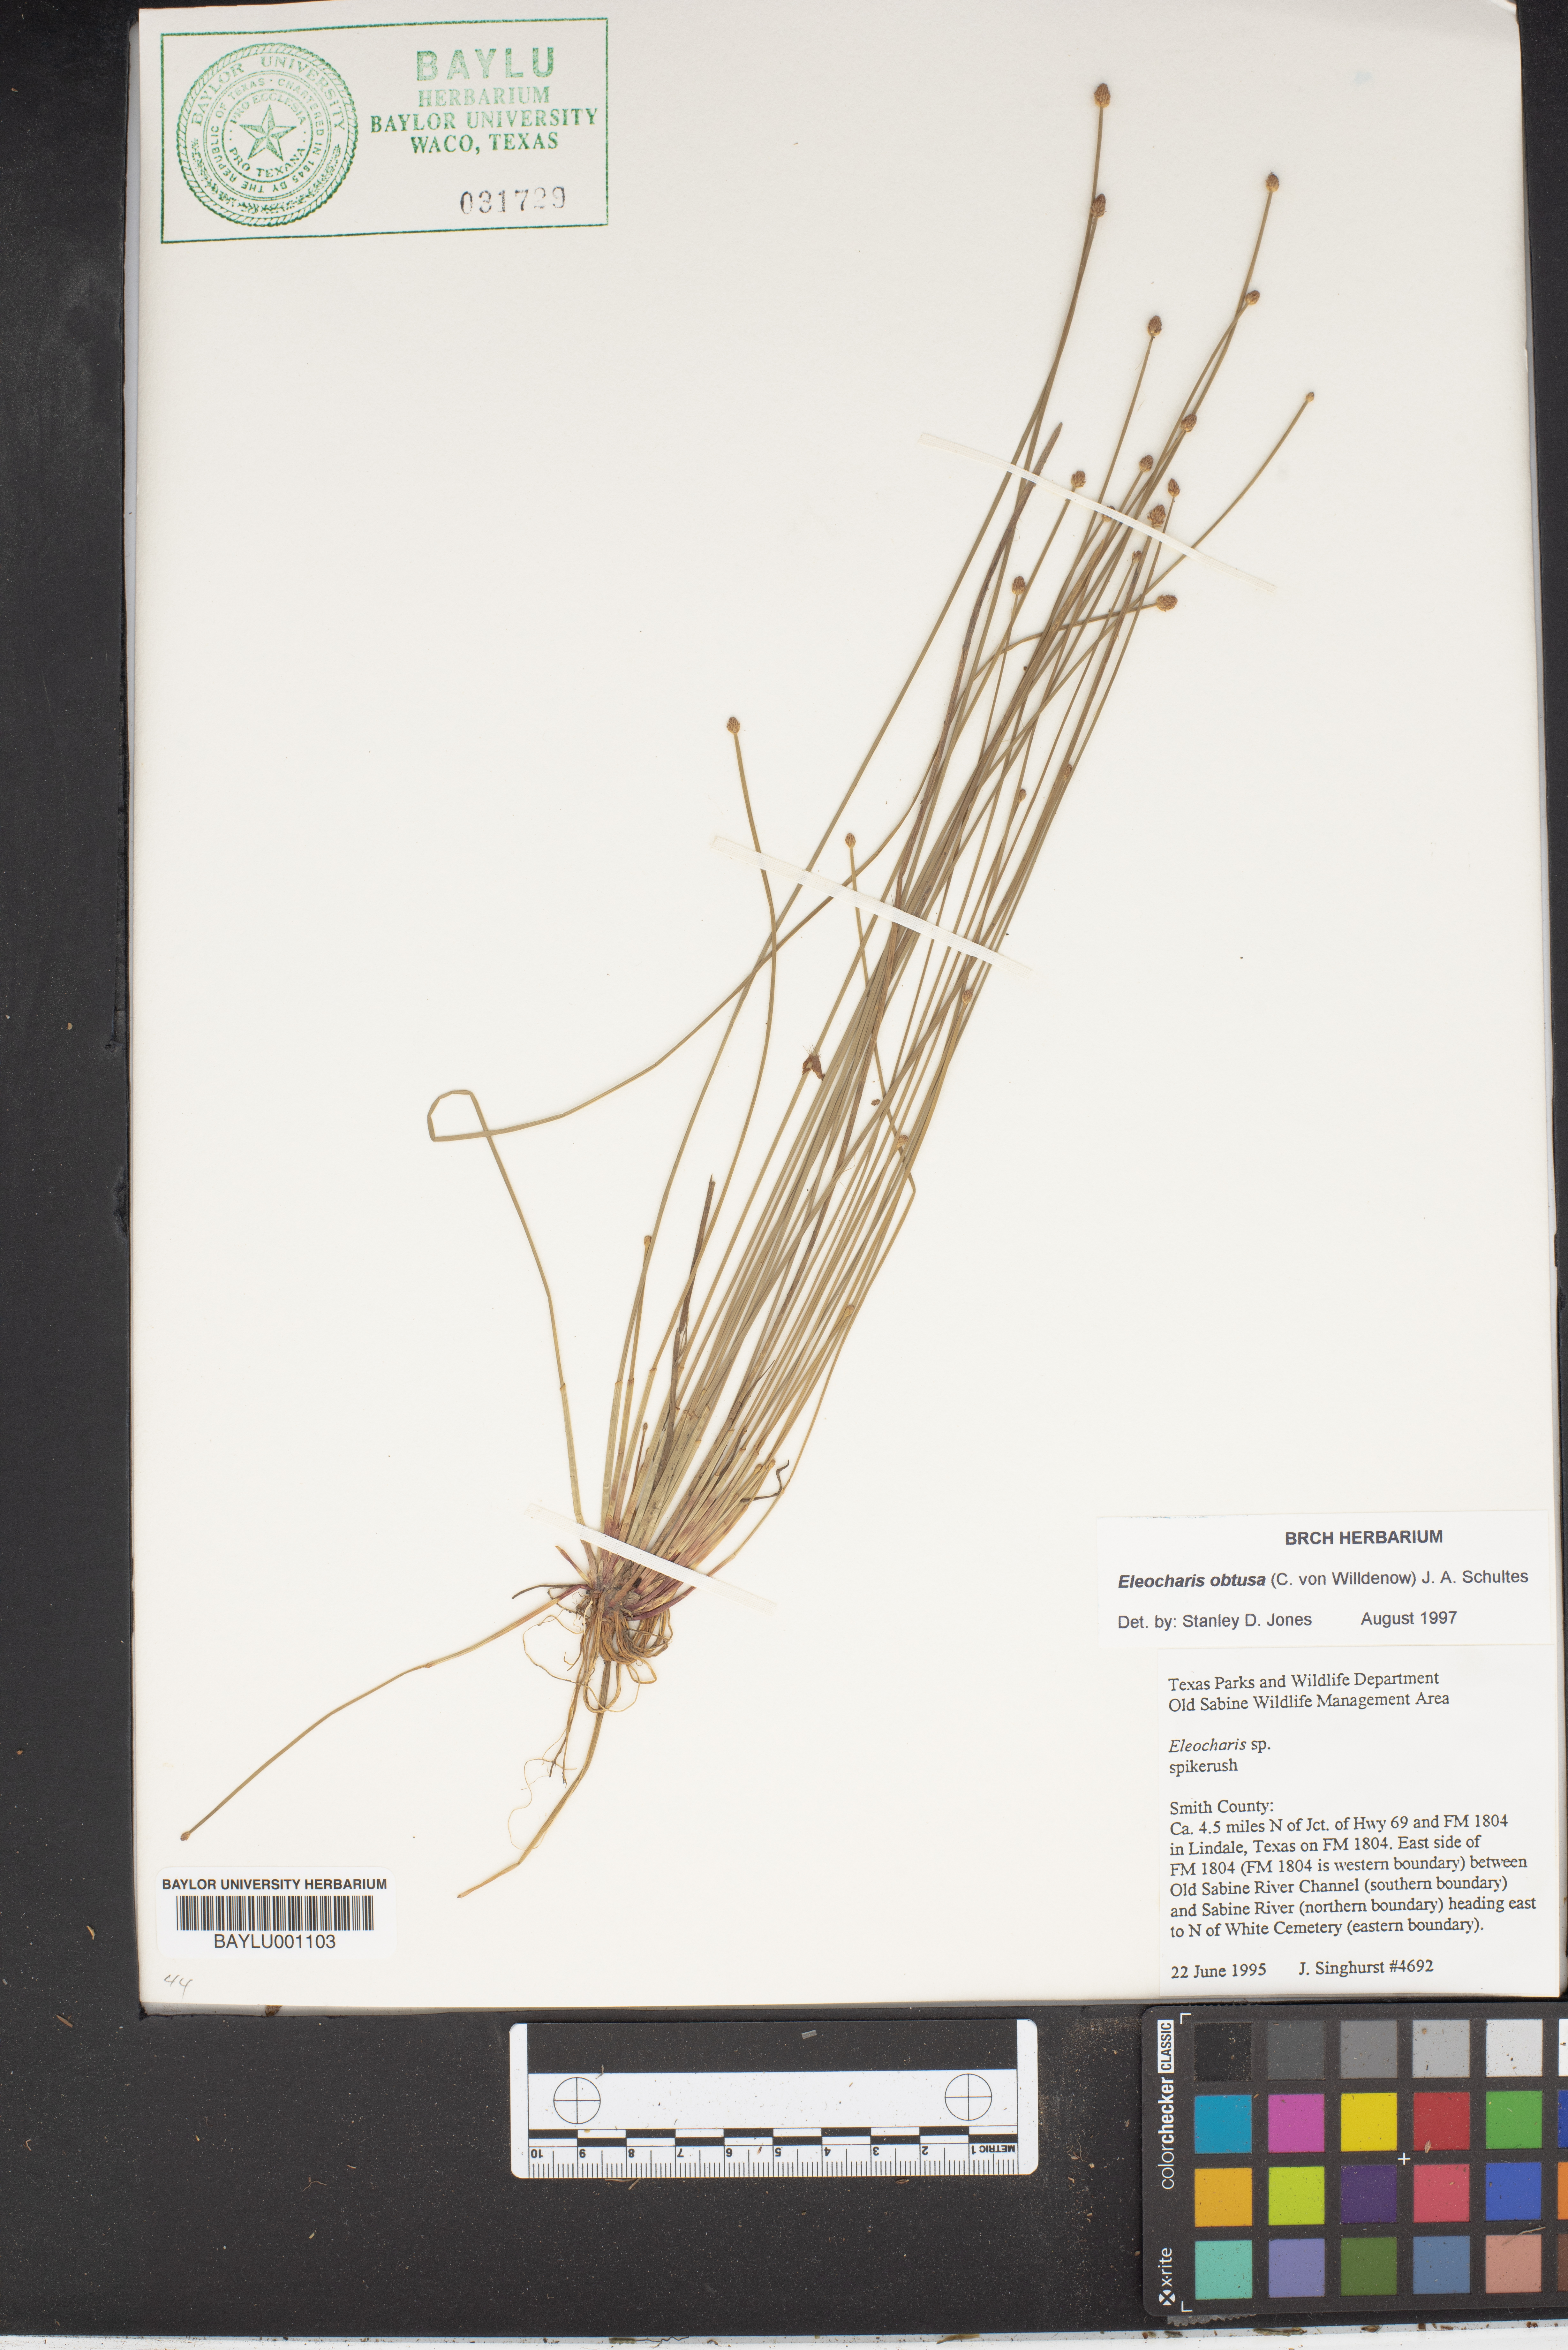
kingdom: Plantae
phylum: Tracheophyta
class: Liliopsida
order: Poales
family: Cyperaceae
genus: Eleocharis
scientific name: Eleocharis obtusa
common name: Blunt spikerush
